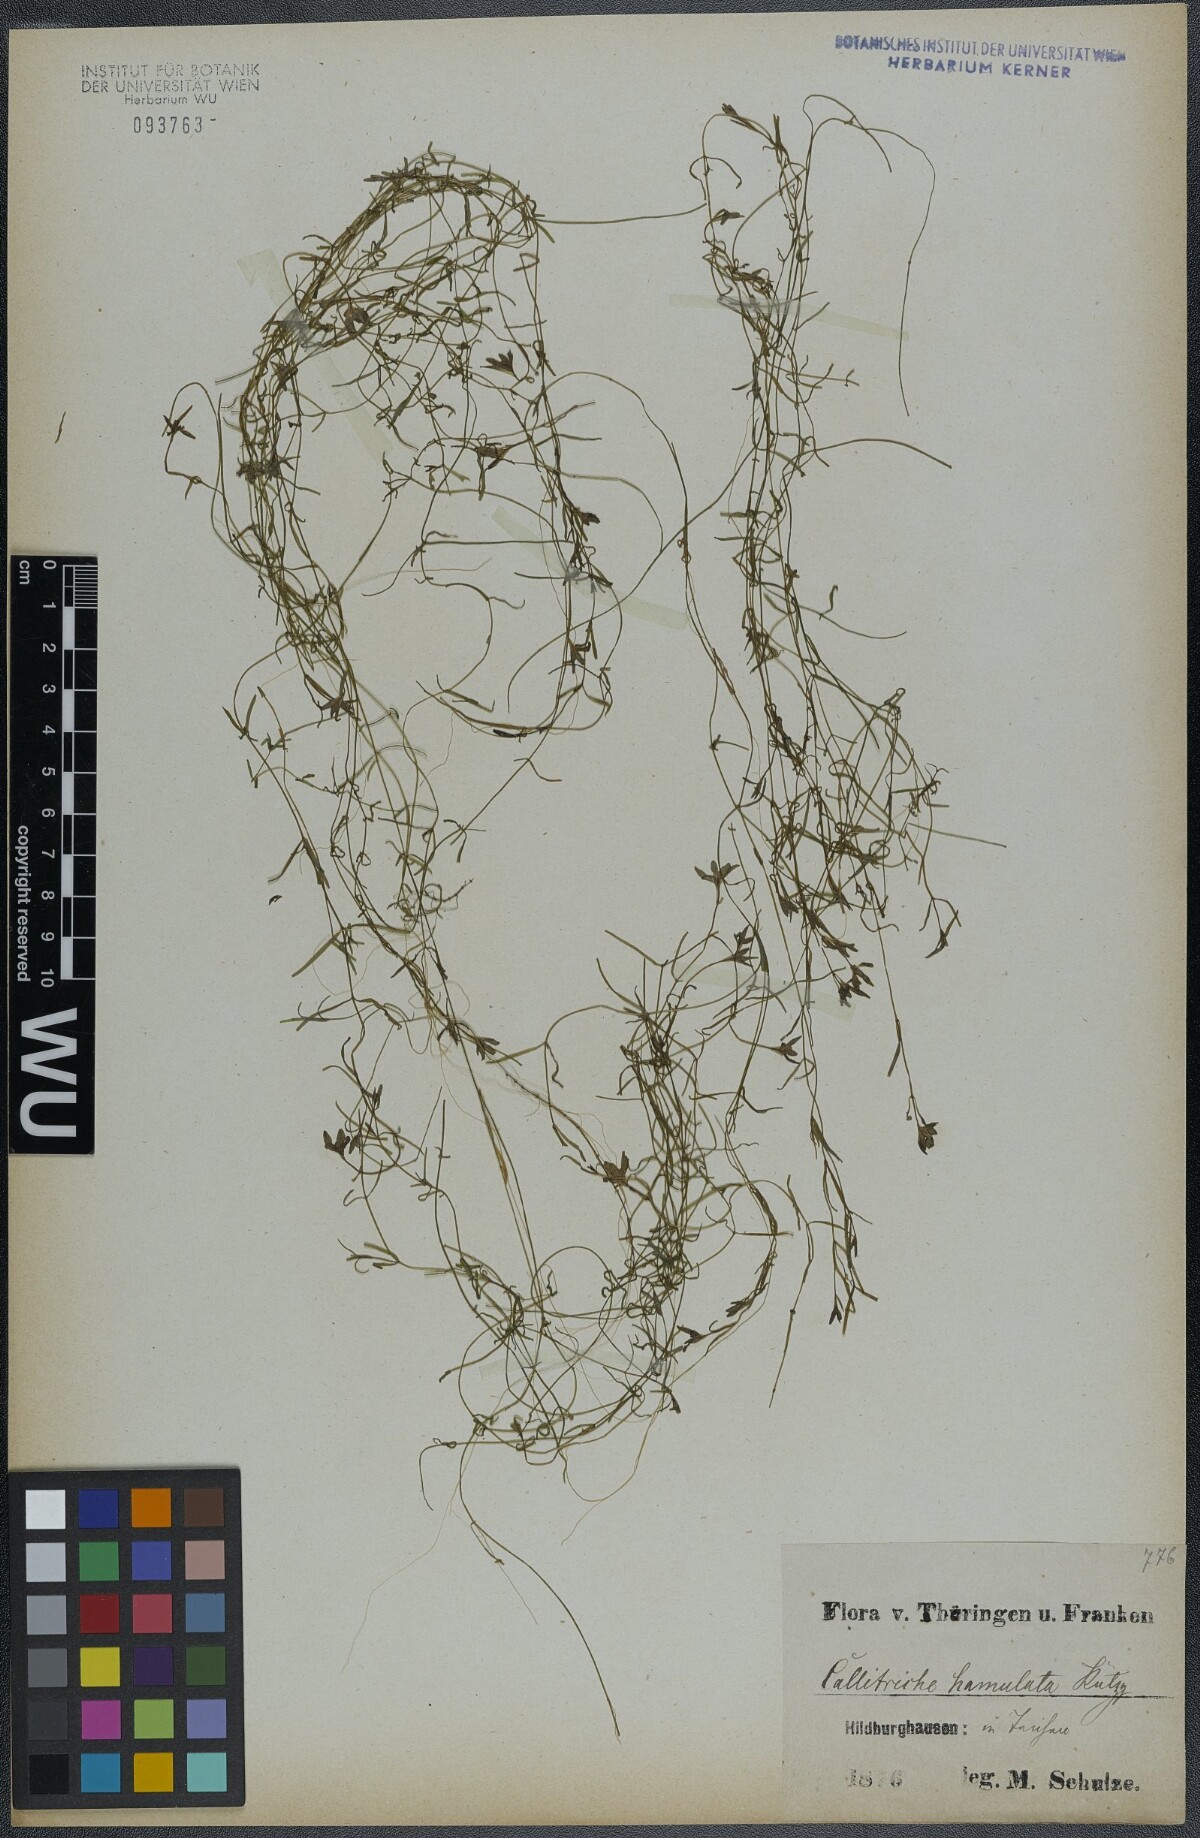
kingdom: Plantae
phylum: Tracheophyta
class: Magnoliopsida
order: Lamiales
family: Plantaginaceae
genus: Callitriche
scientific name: Callitriche hamulata
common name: Intermediate water-starwort
